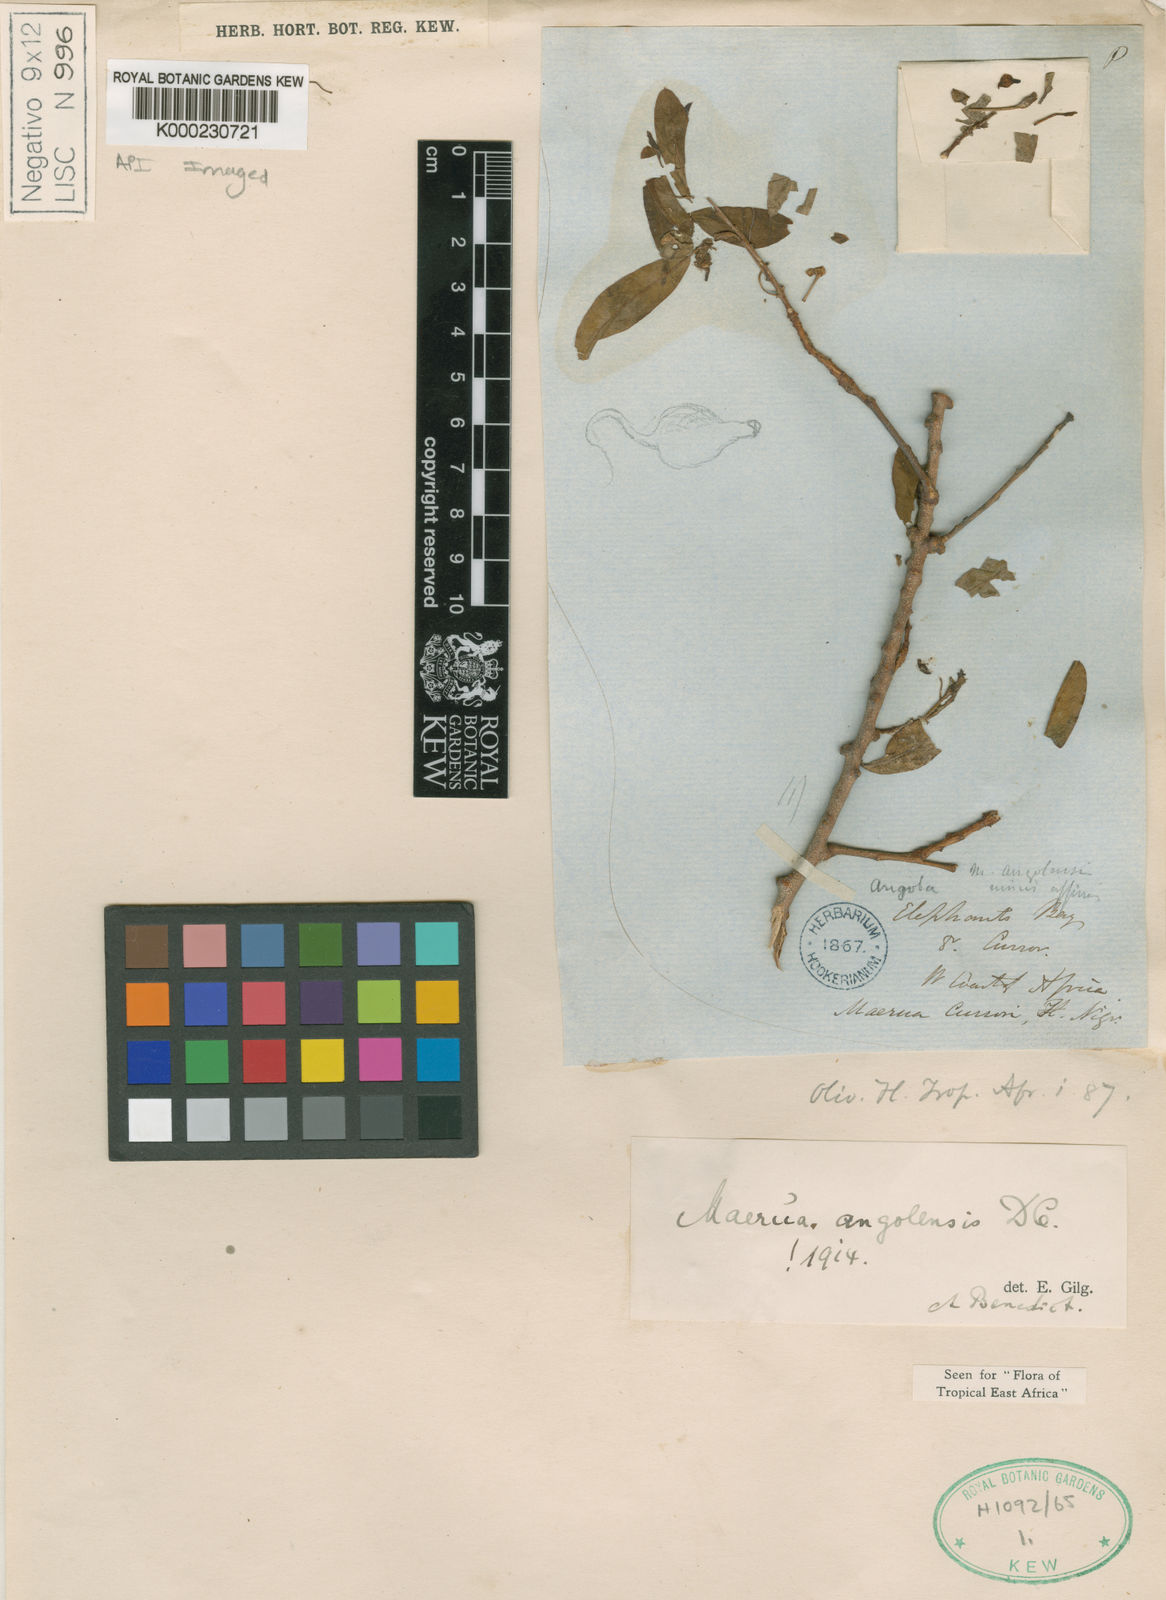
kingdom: Plantae
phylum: Tracheophyta
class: Magnoliopsida
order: Brassicales
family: Capparaceae
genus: Maerua
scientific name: Maerua angolensis
